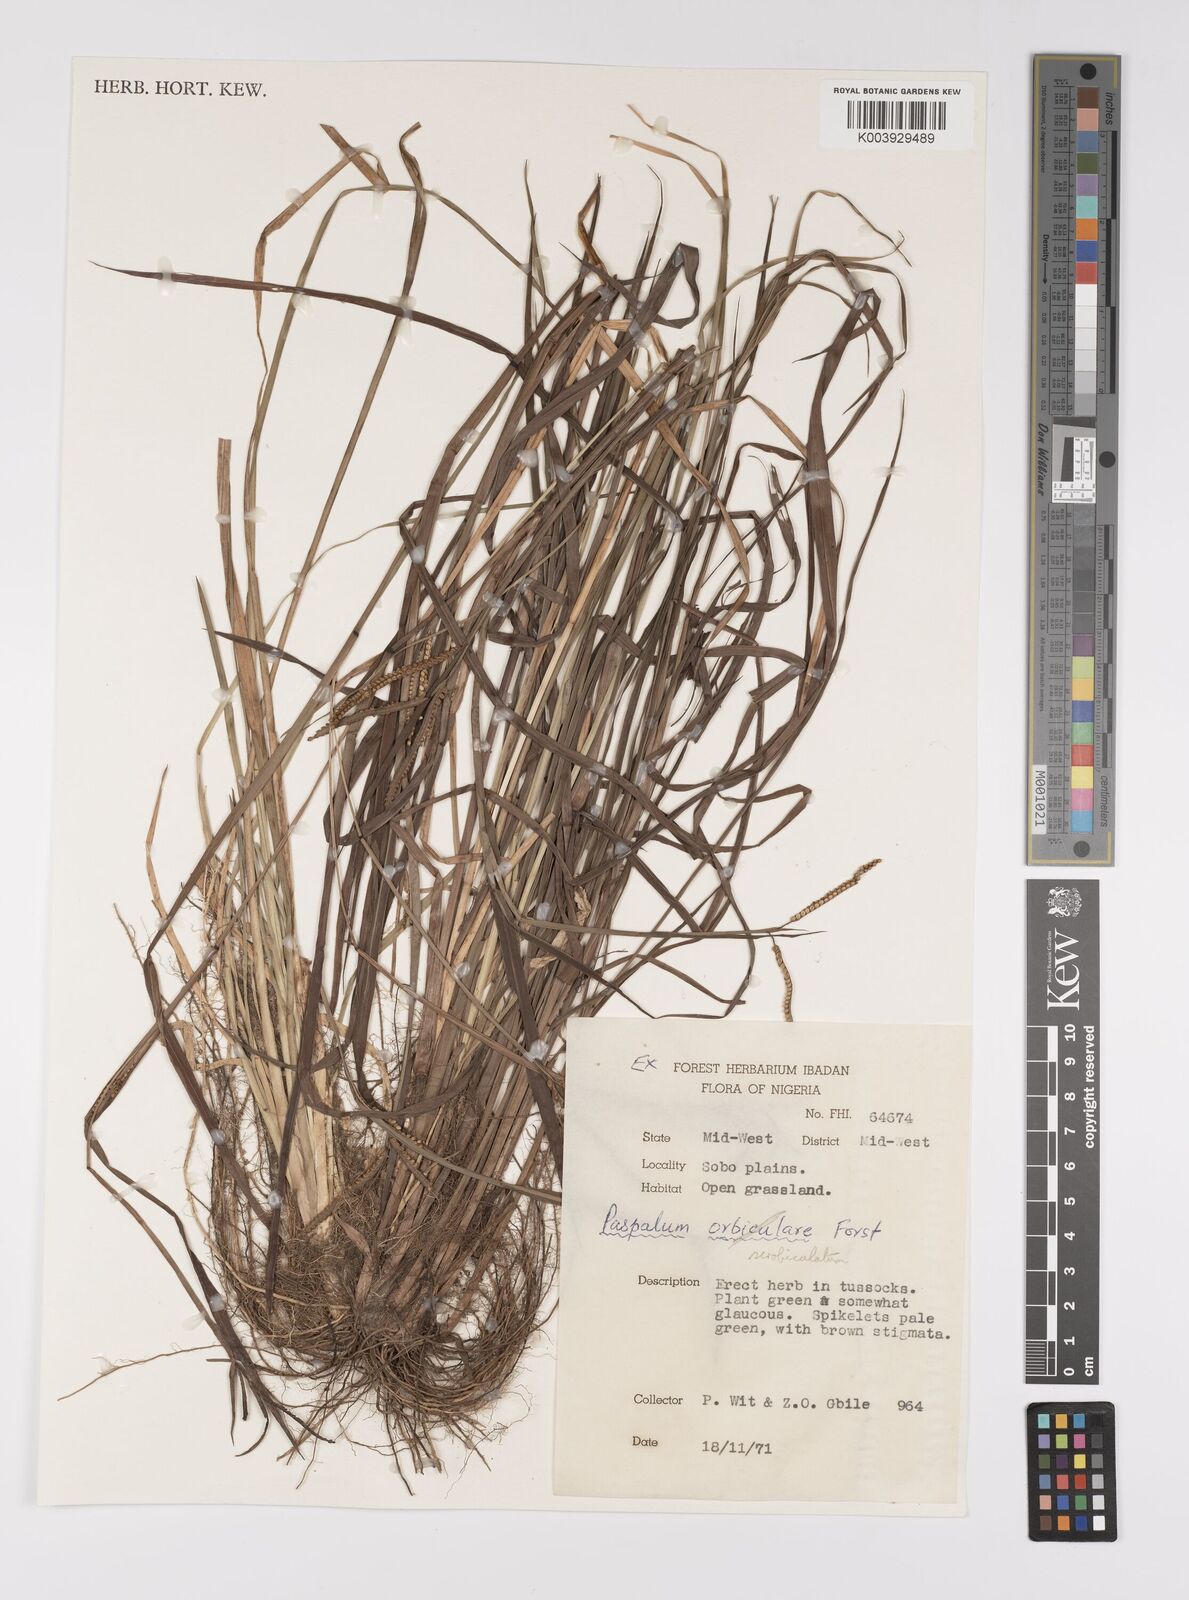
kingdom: Plantae
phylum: Tracheophyta
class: Liliopsida
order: Poales
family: Poaceae
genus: Paspalum
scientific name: Paspalum scrobiculatum
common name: Kodo millet
